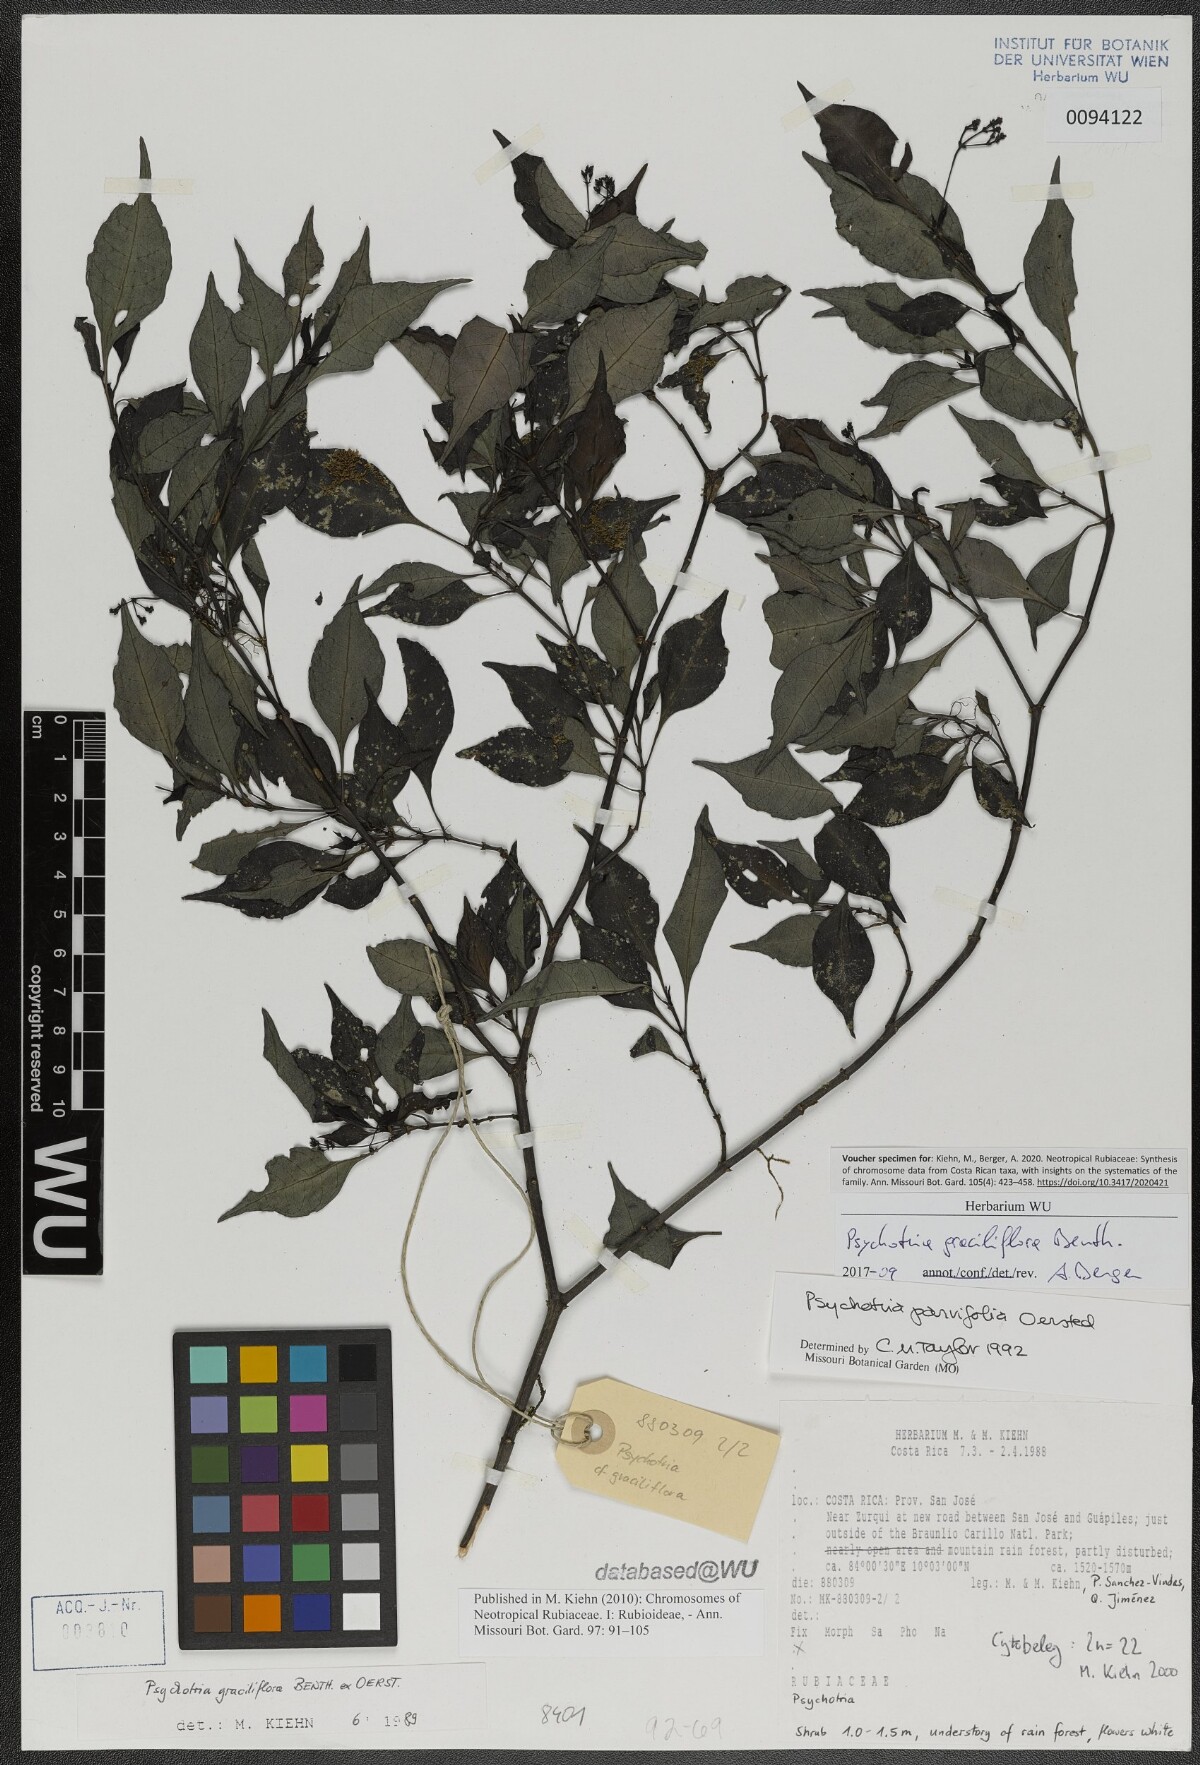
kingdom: Plantae
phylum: Tracheophyta
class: Magnoliopsida
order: Gentianales
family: Rubiaceae
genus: Psychotria
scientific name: Psychotria biaristata
